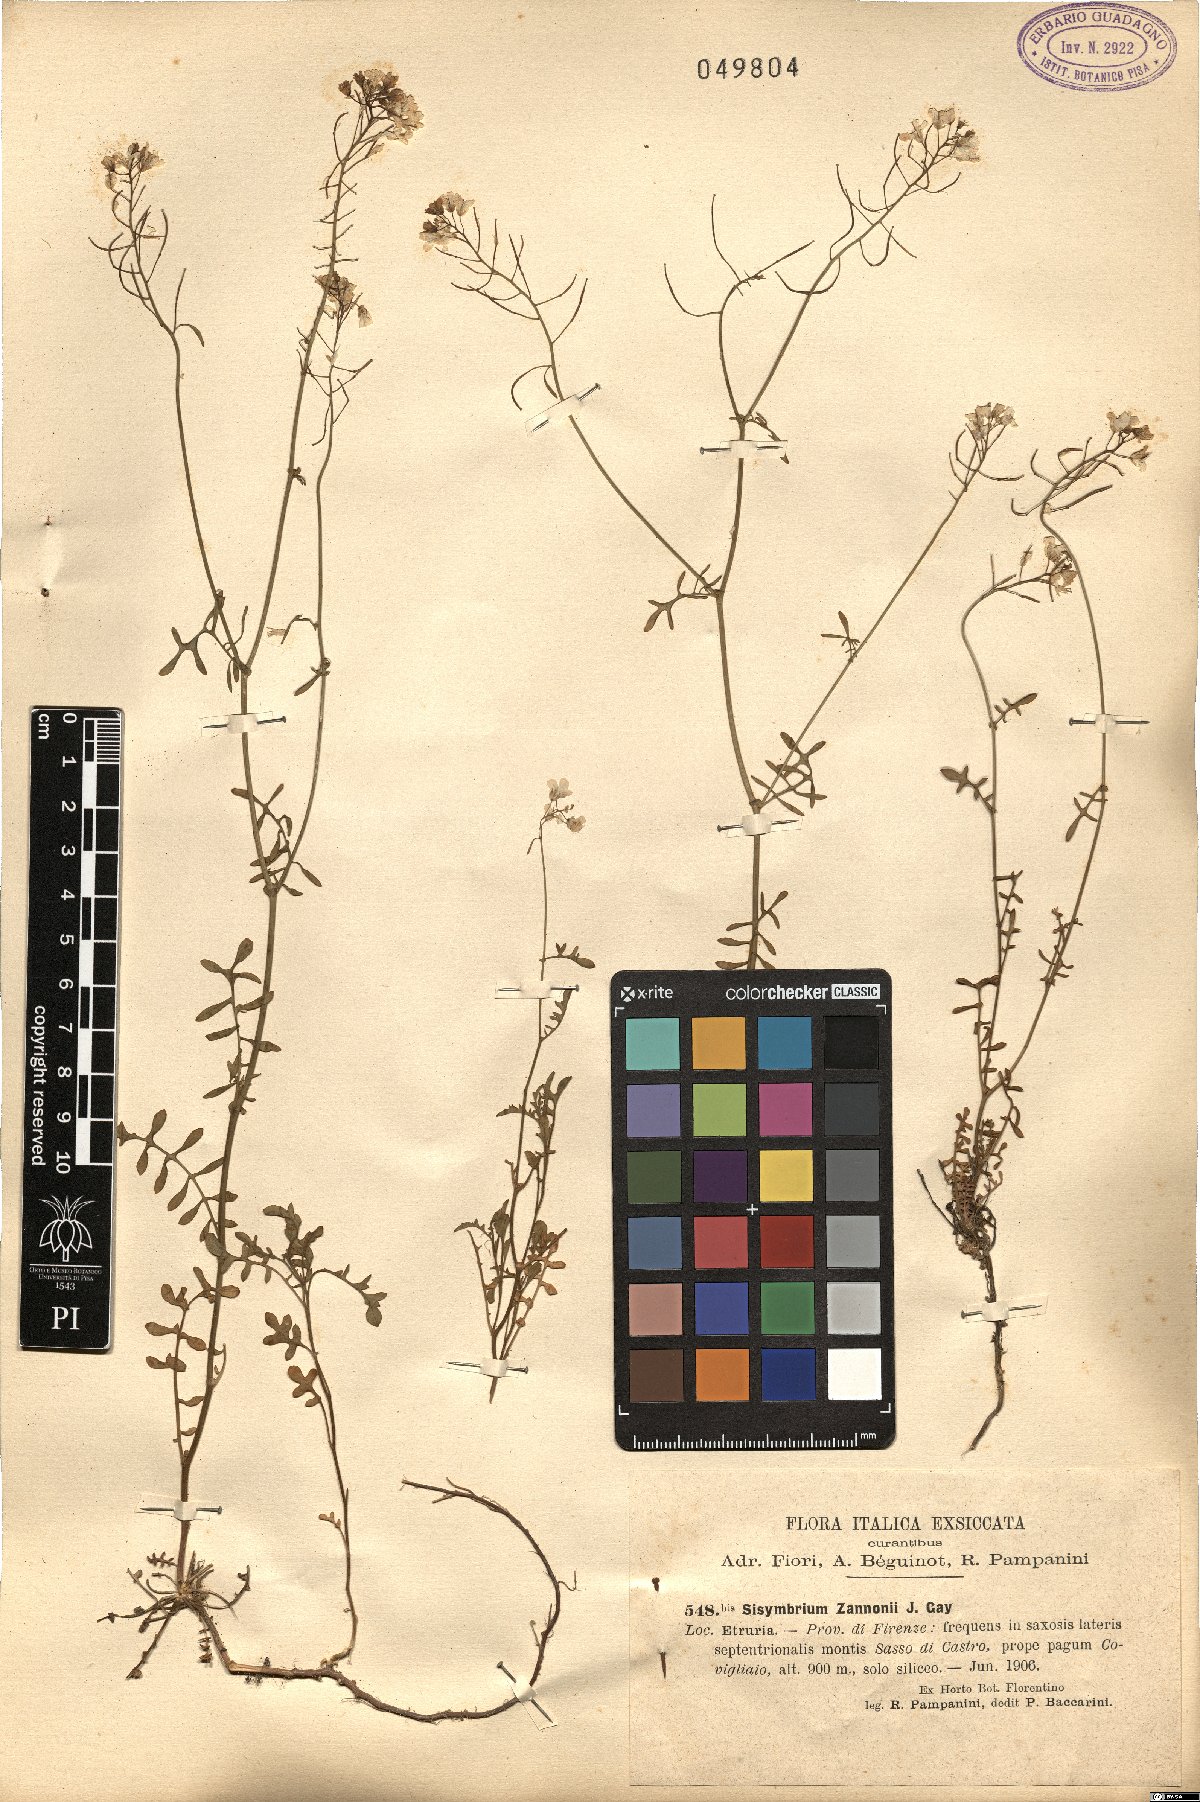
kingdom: Plantae
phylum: Tracheophyta
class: Magnoliopsida
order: Brassicales
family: Brassicaceae
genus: Murbeckiella
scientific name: Murbeckiella zanonii
